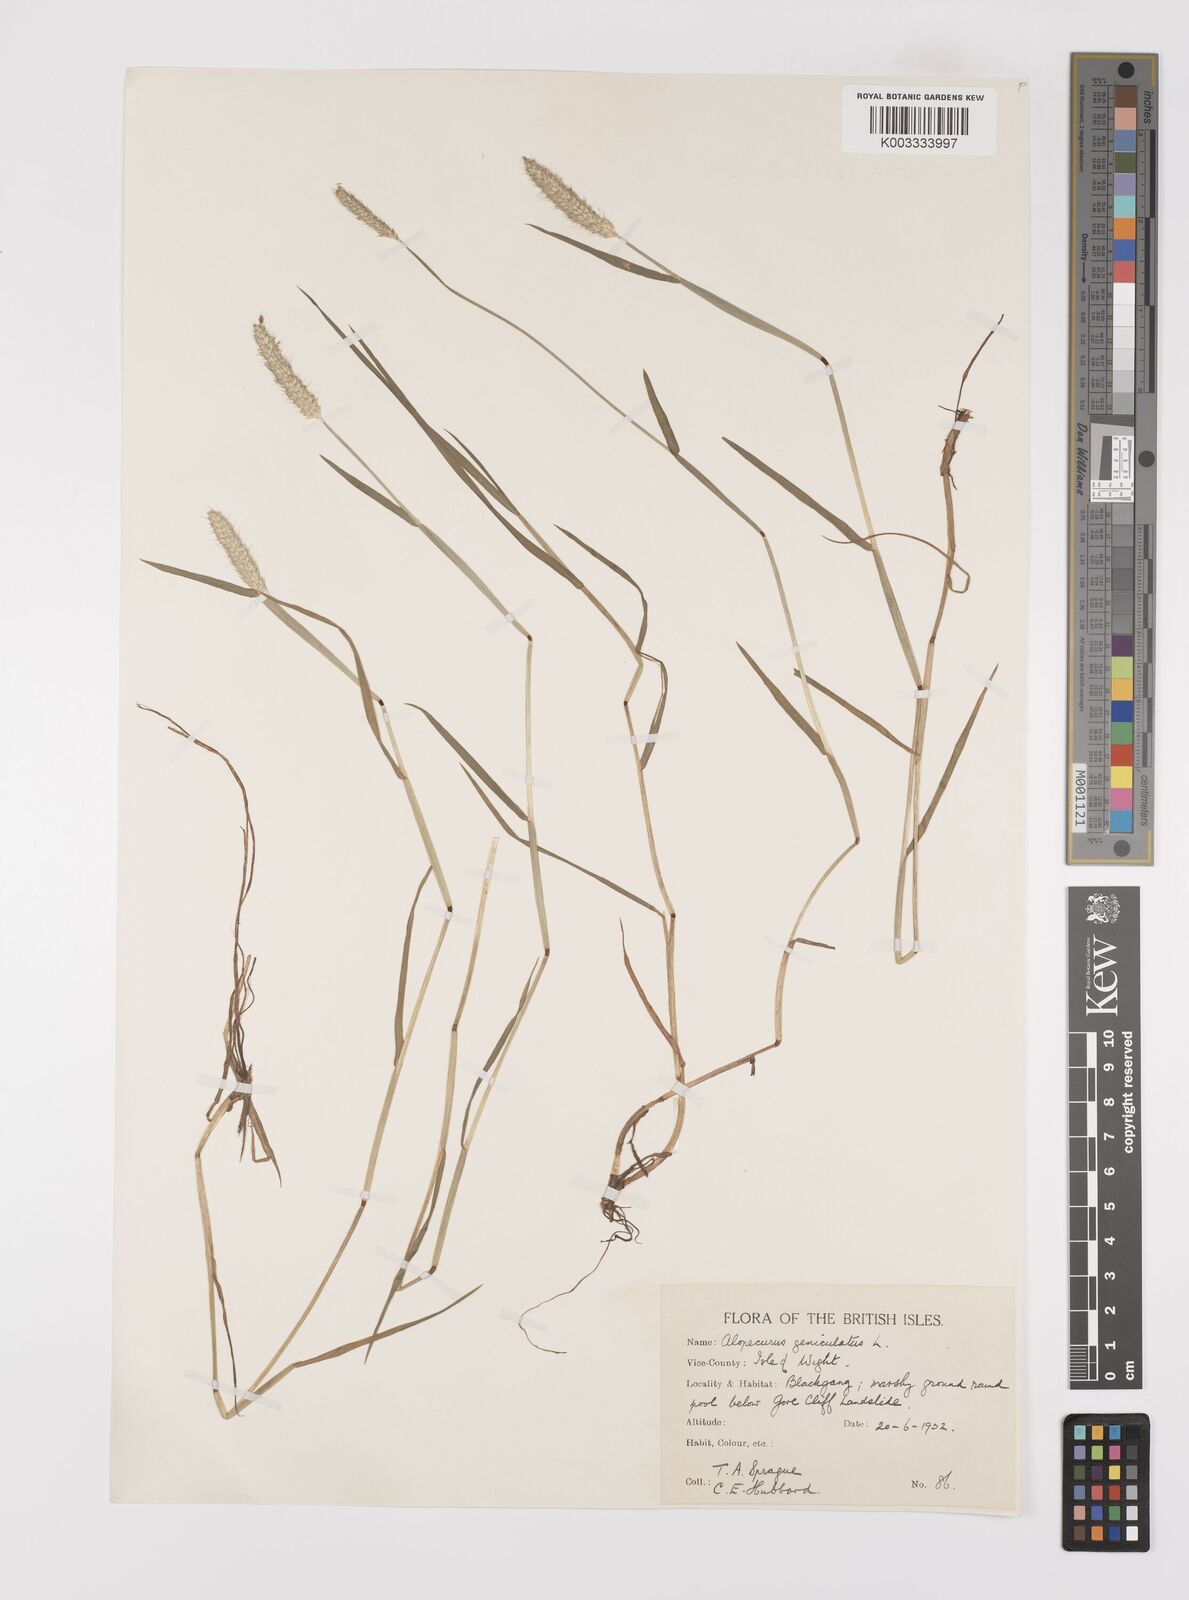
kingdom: Plantae
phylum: Tracheophyta
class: Liliopsida
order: Poales
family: Poaceae
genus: Alopecurus
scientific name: Alopecurus geniculatus
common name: Water foxtail
